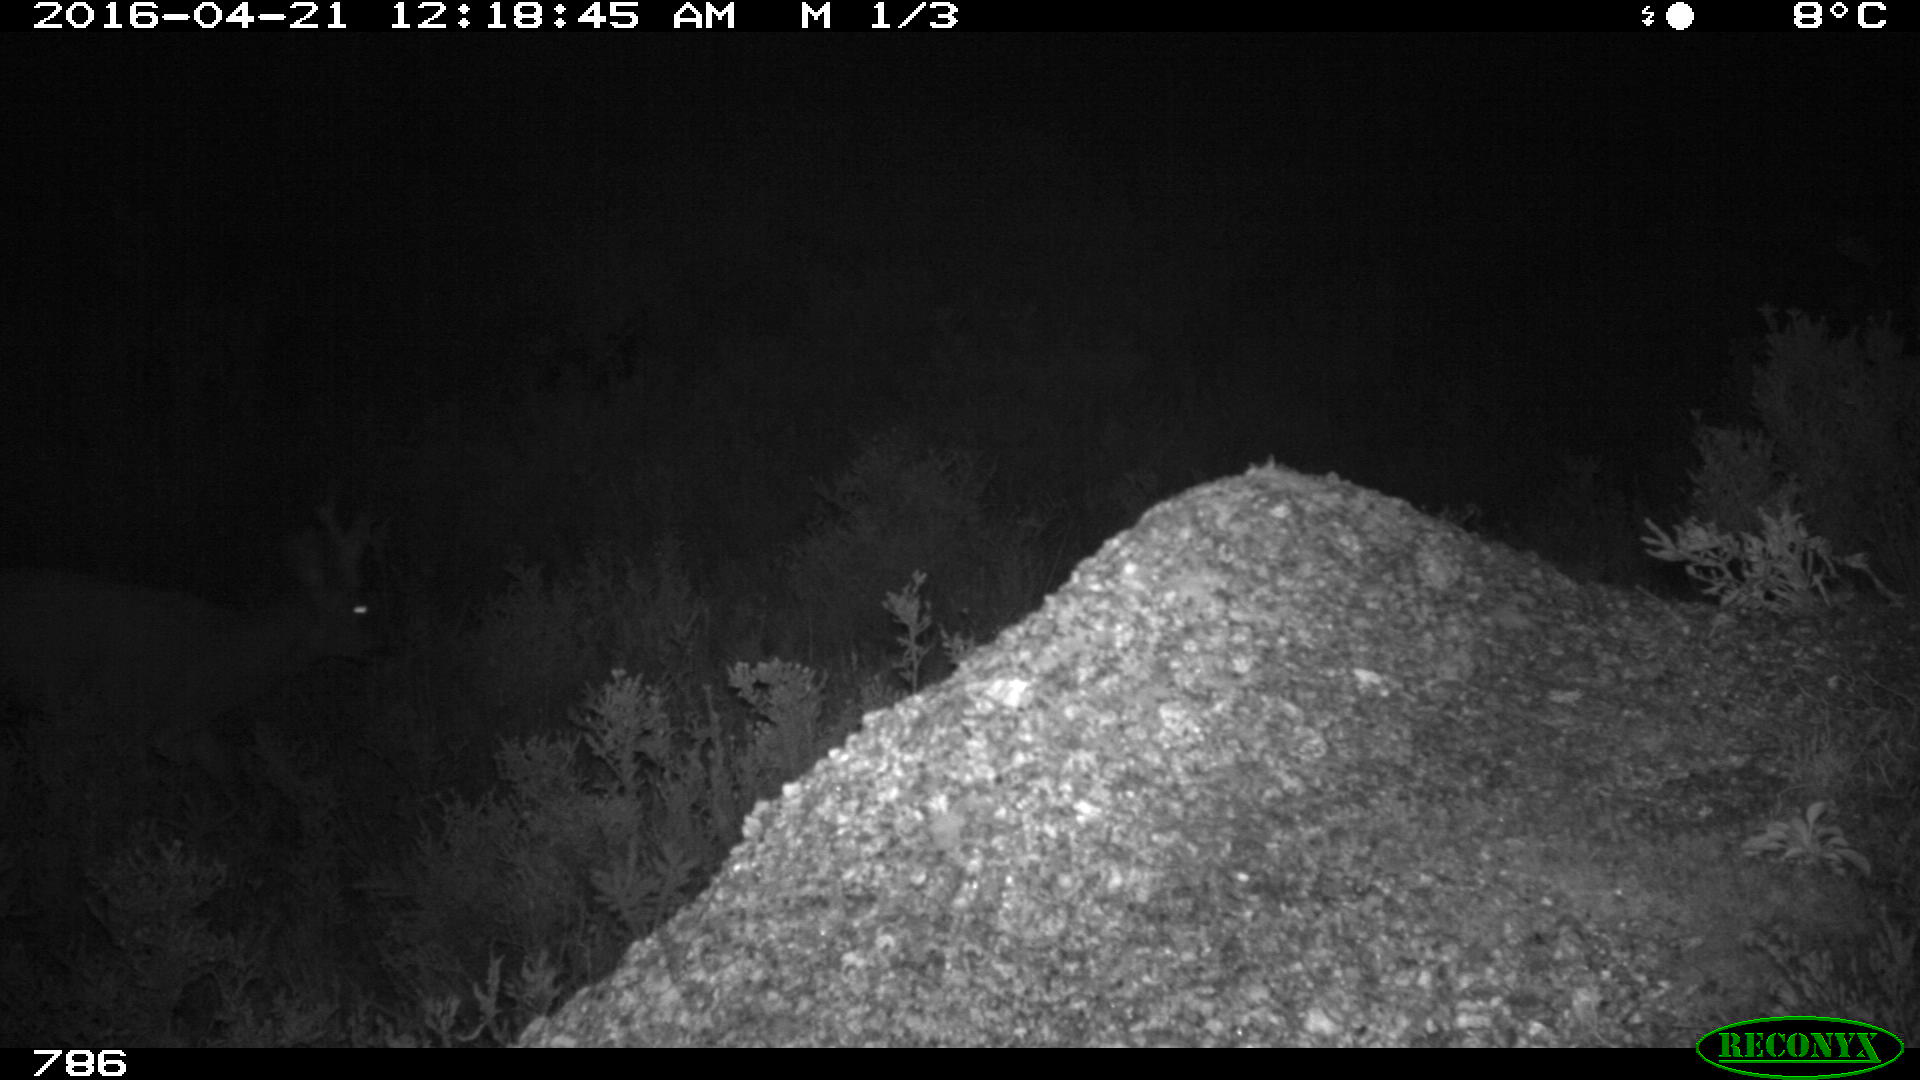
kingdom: Animalia
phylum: Chordata
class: Mammalia
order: Artiodactyla
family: Cervidae
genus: Capreolus
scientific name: Capreolus capreolus
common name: Western roe deer
